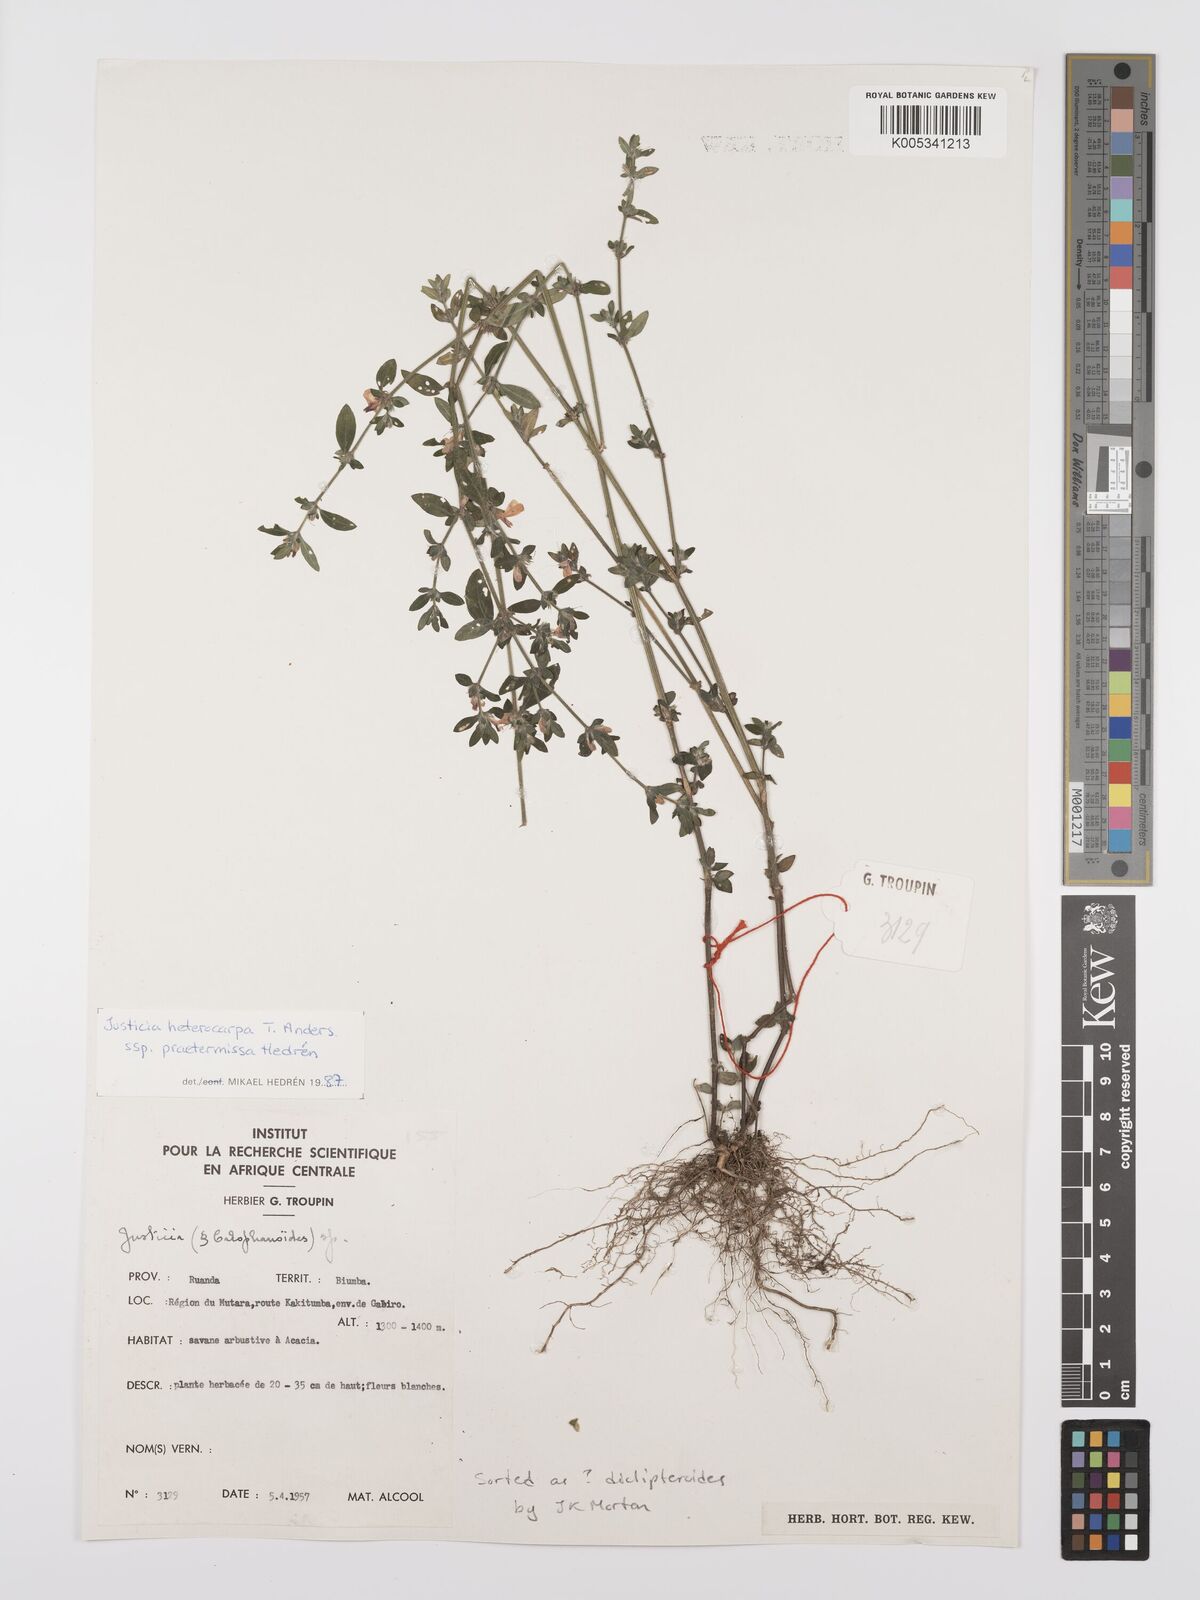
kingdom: Plantae
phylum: Tracheophyta
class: Magnoliopsida
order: Lamiales
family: Acanthaceae
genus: Justicia
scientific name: Justicia heterocarpa
